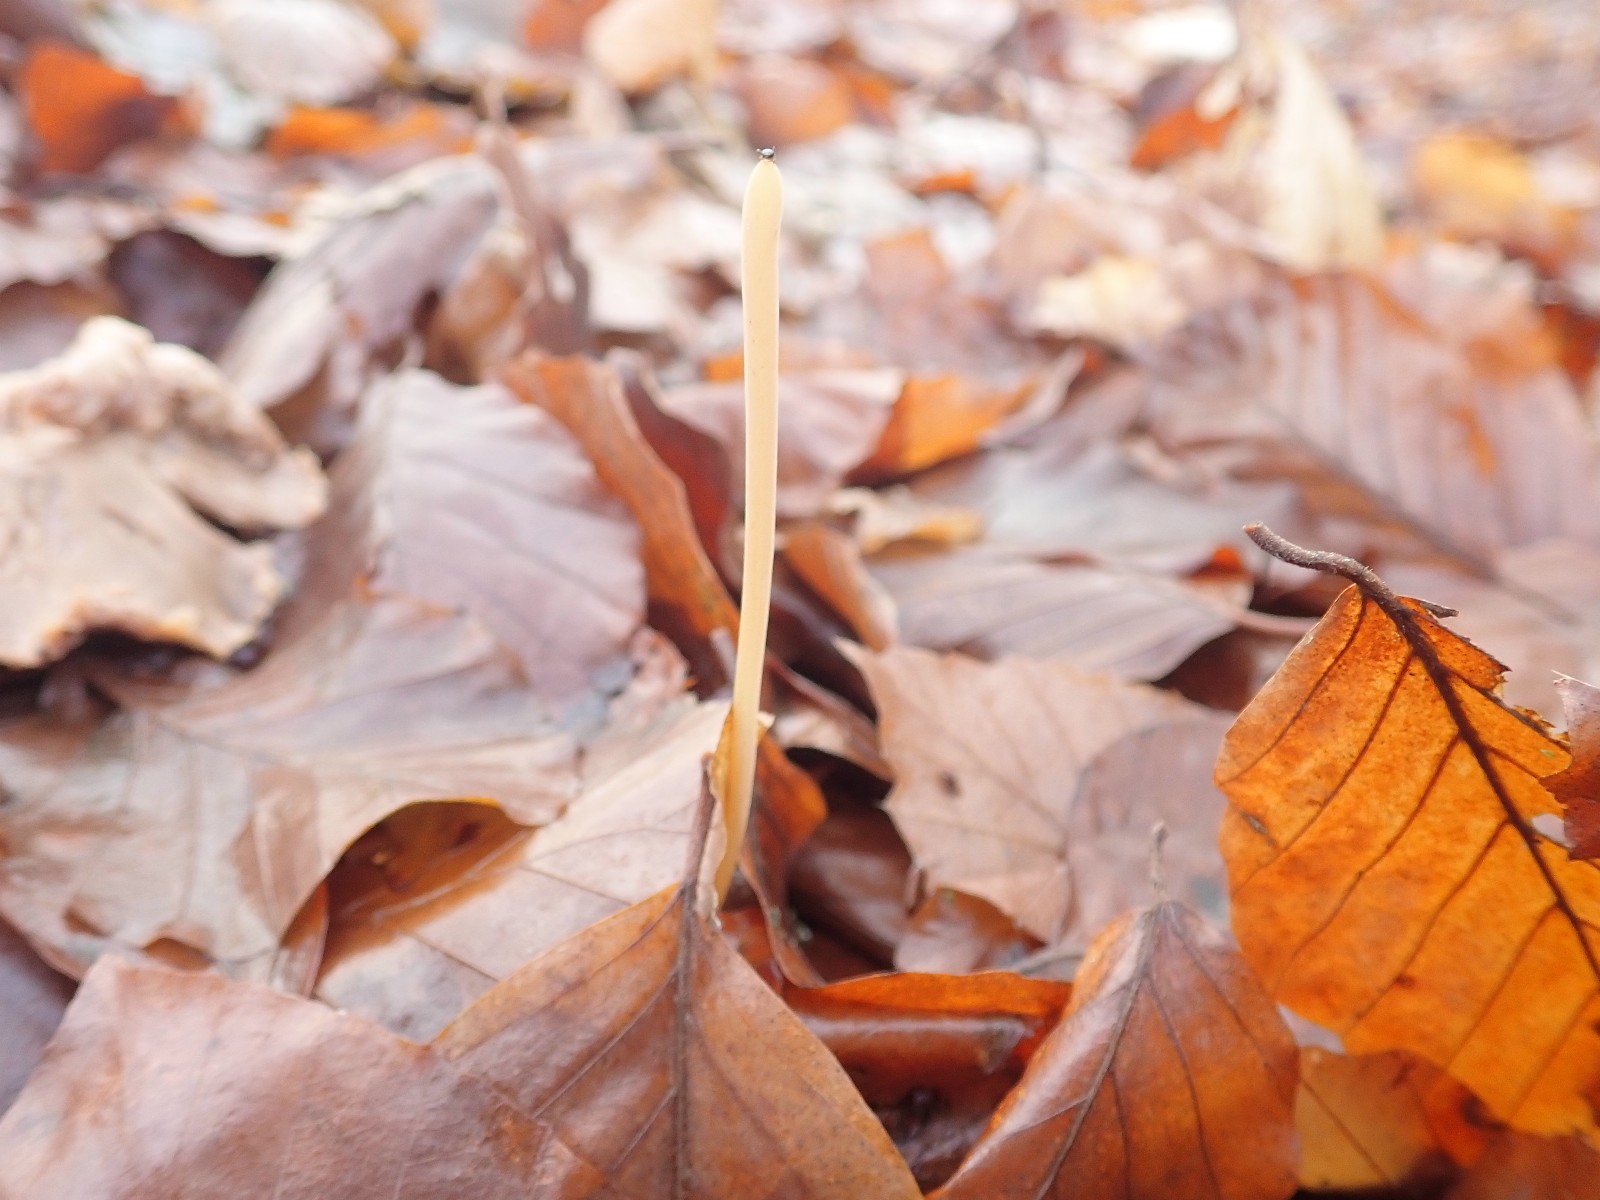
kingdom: Fungi
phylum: Basidiomycota
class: Agaricomycetes
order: Agaricales
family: Typhulaceae
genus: Typhula
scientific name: Typhula fistulosa
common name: pibet rørkølle
